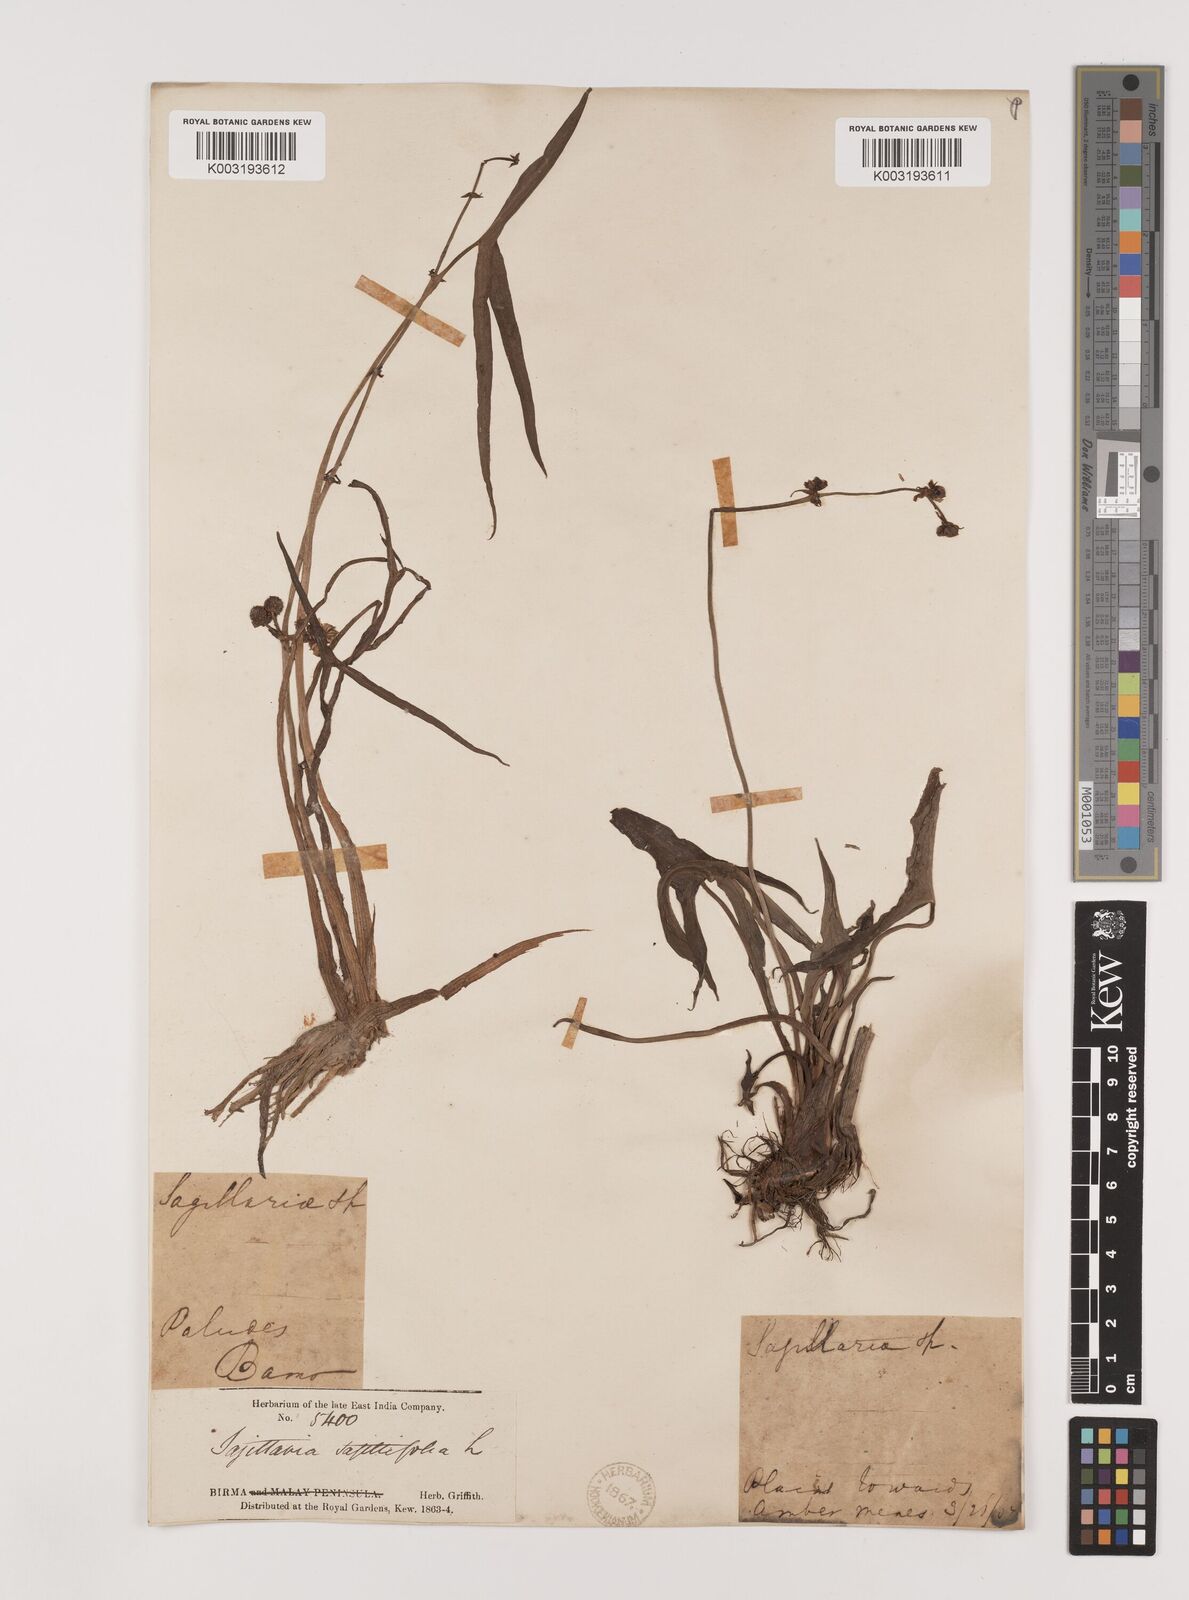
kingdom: Plantae
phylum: Tracheophyta
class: Liliopsida
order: Alismatales
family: Alismataceae
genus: Sagittaria
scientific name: Sagittaria sagittifolia
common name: Arrowhead
